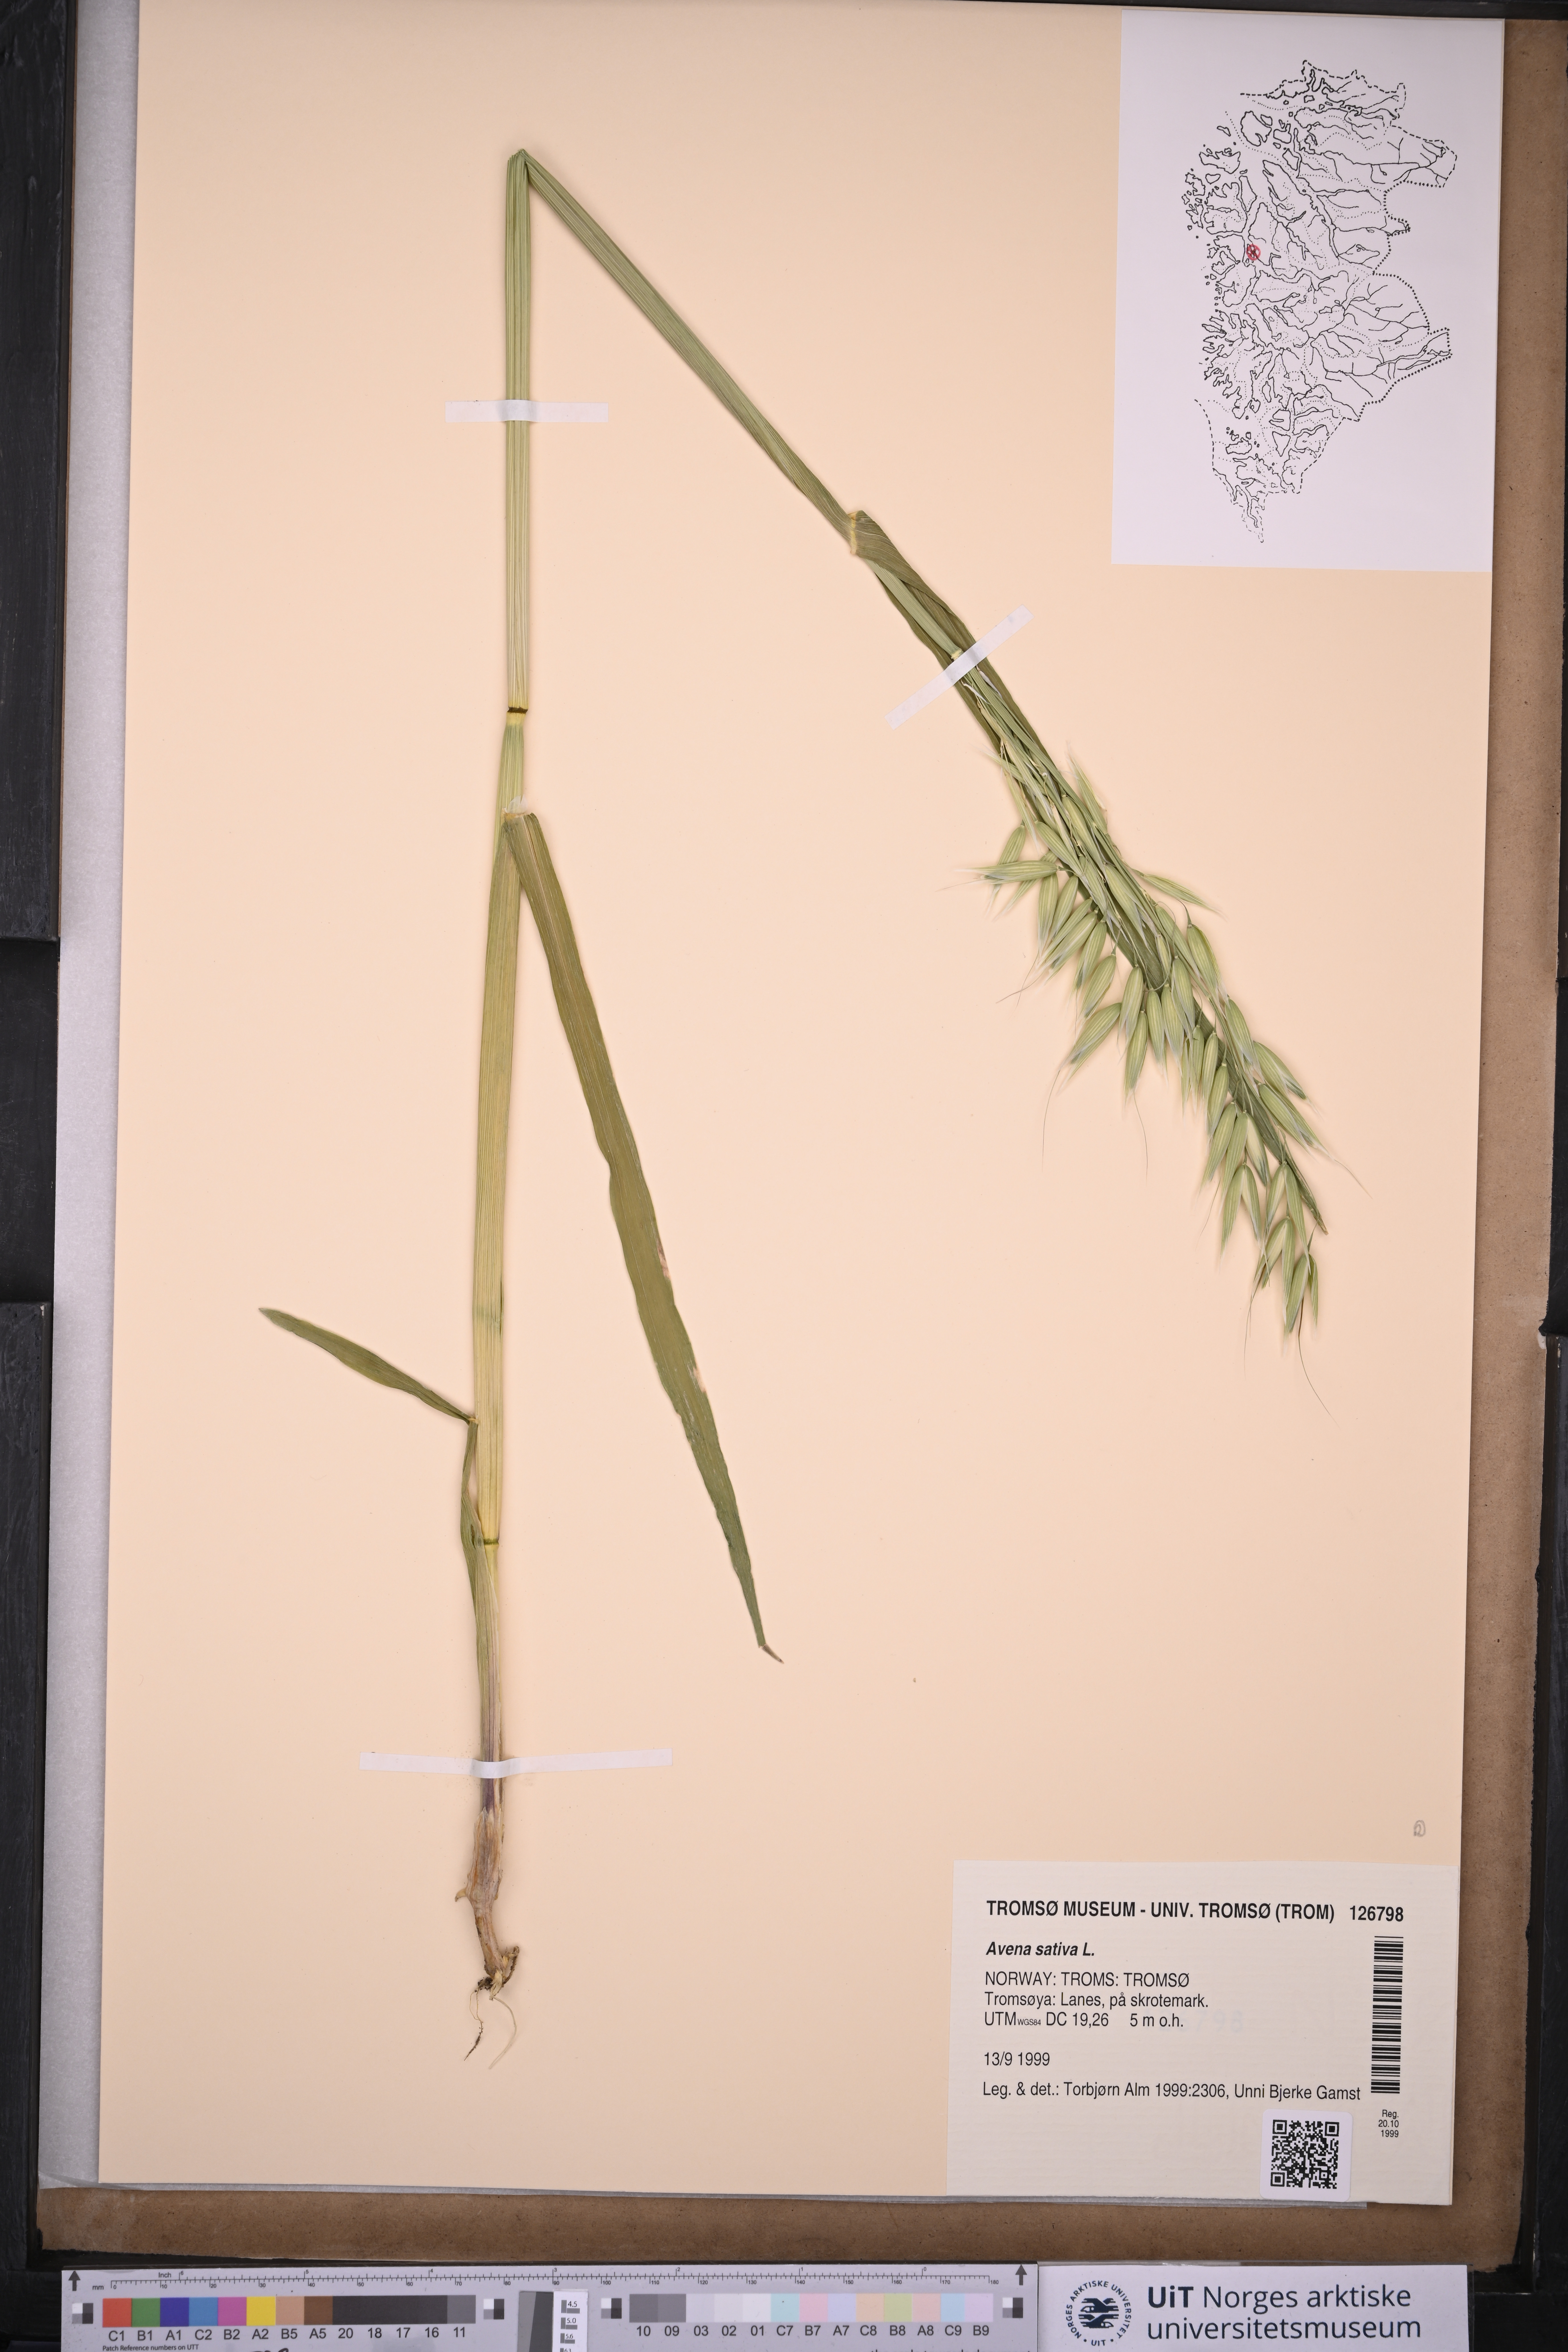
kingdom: Plantae
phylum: Tracheophyta
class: Liliopsida
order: Poales
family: Poaceae
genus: Avena
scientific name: Avena sativa
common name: Oat
